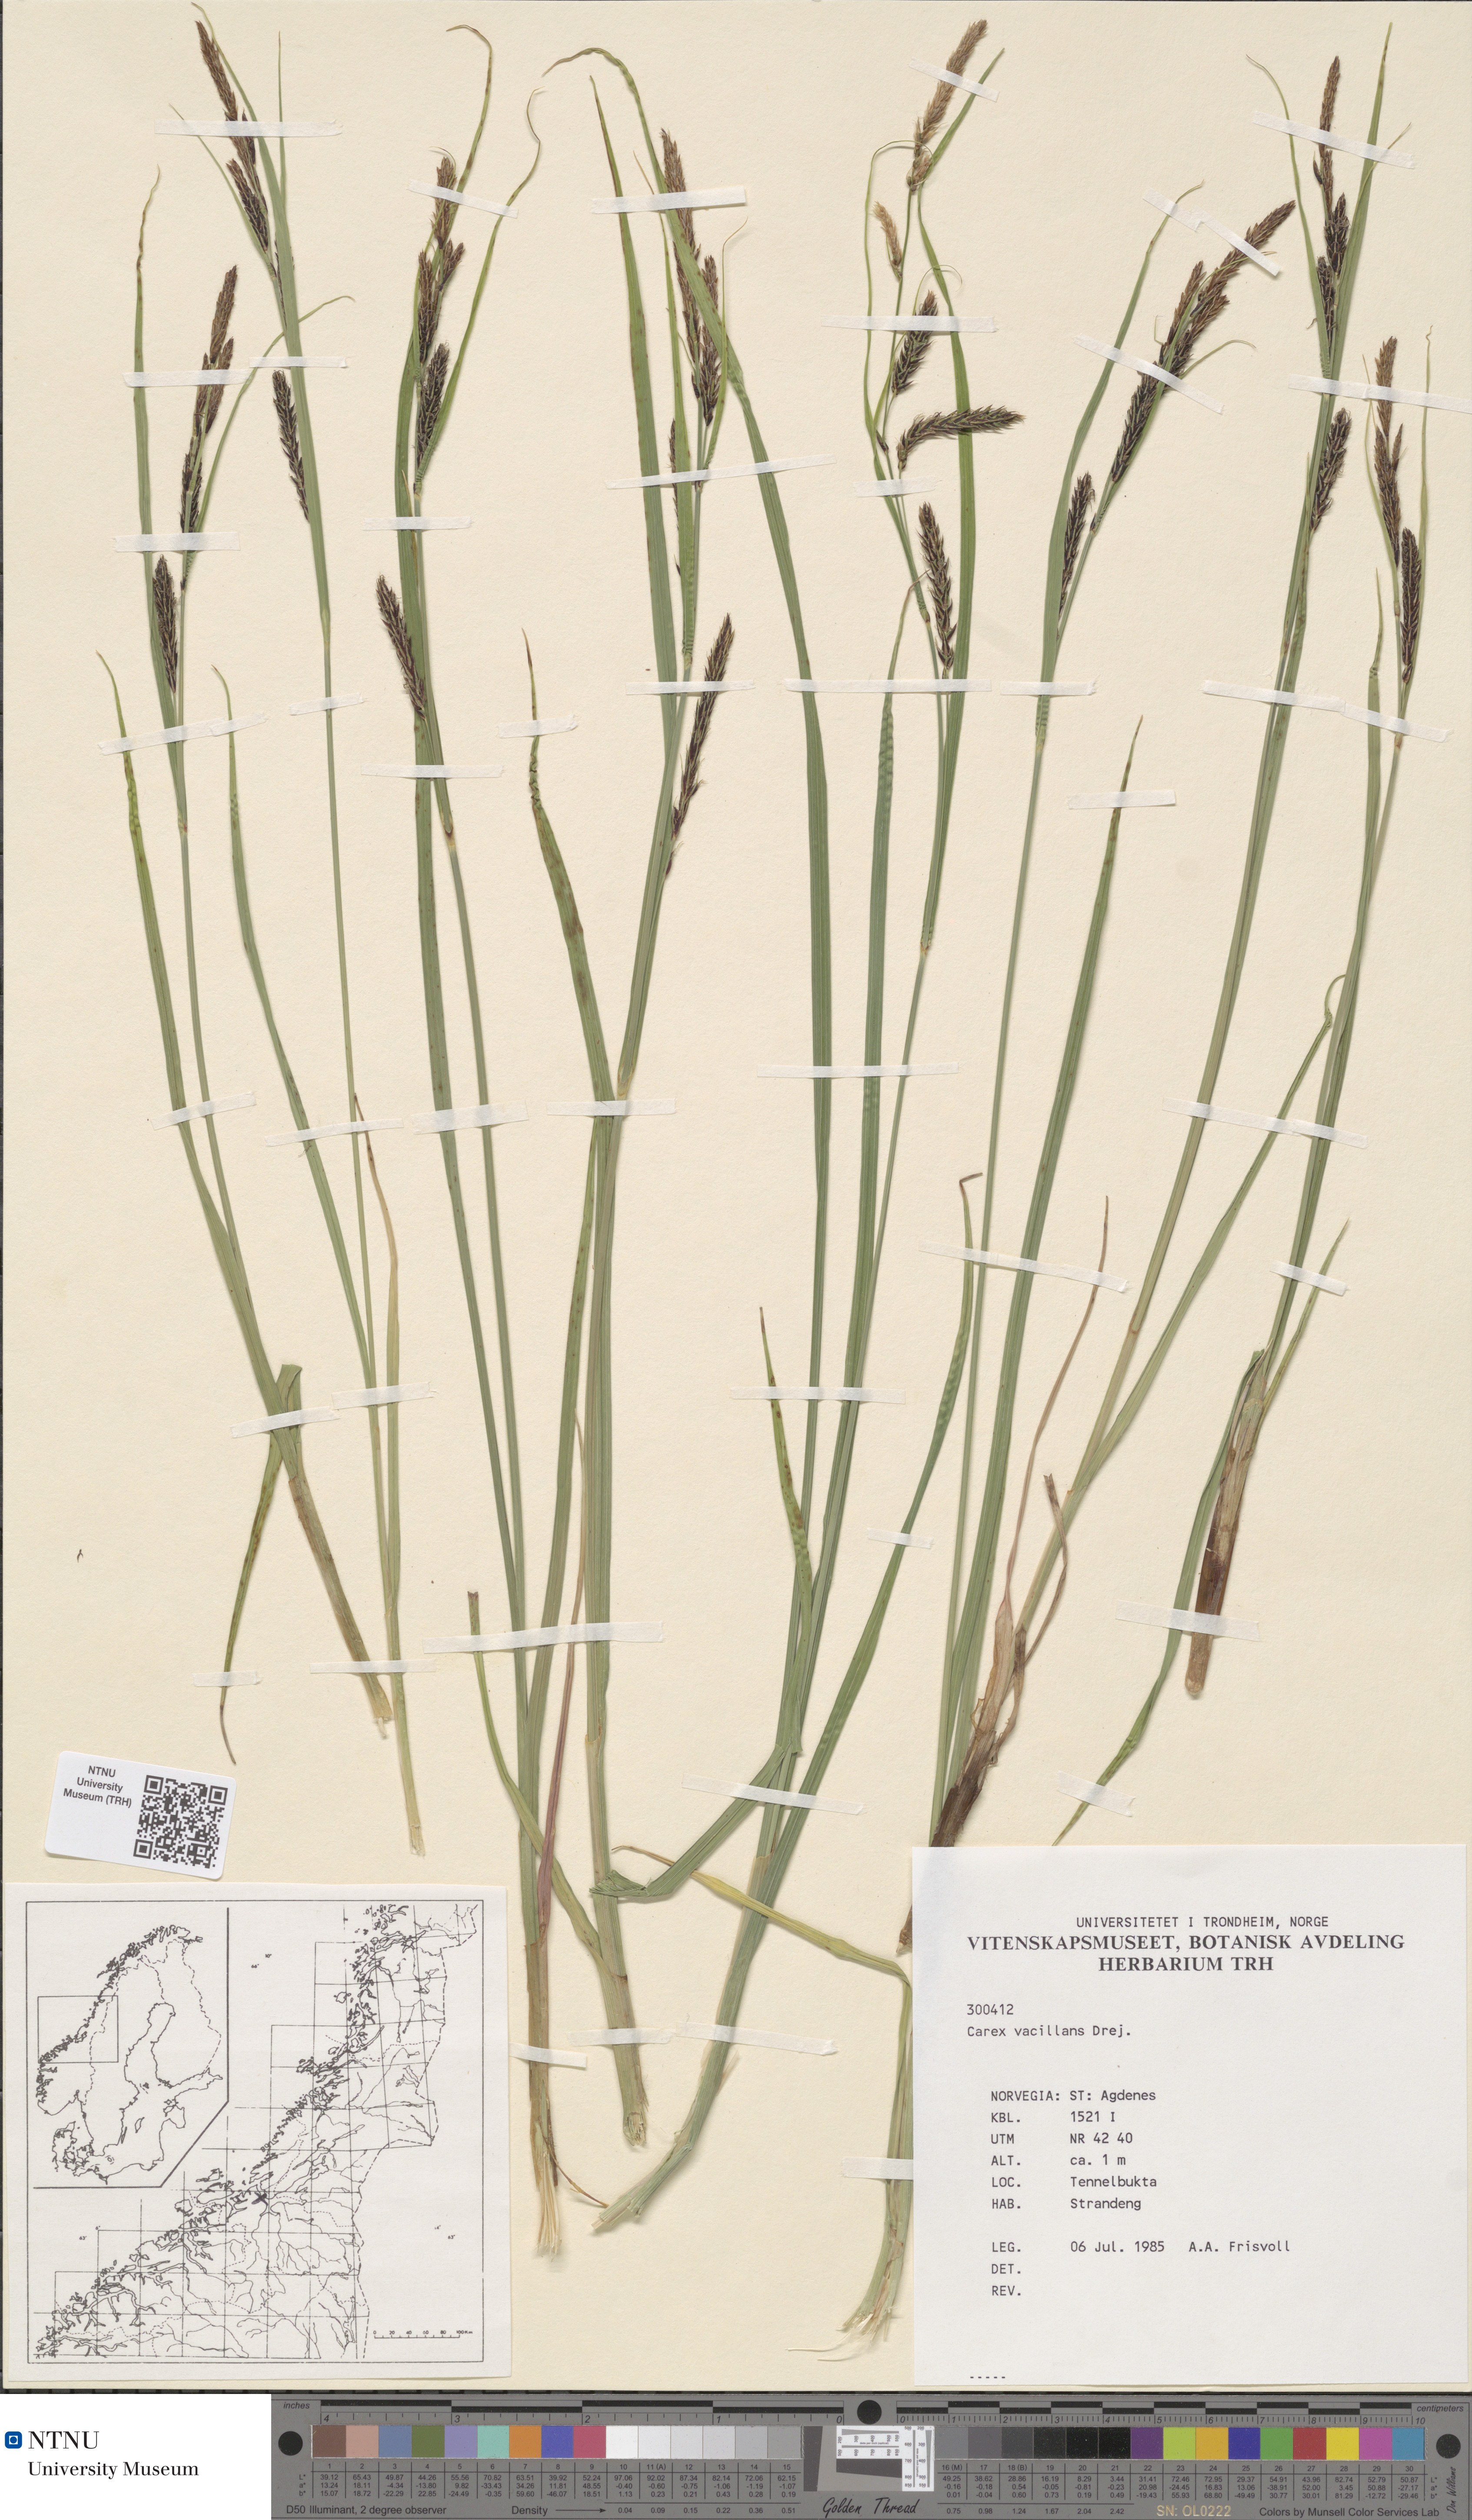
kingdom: Plantae
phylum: Tracheophyta
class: Liliopsida
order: Poales
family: Cyperaceae
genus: Carex
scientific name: Carex vacillans
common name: Sedge
